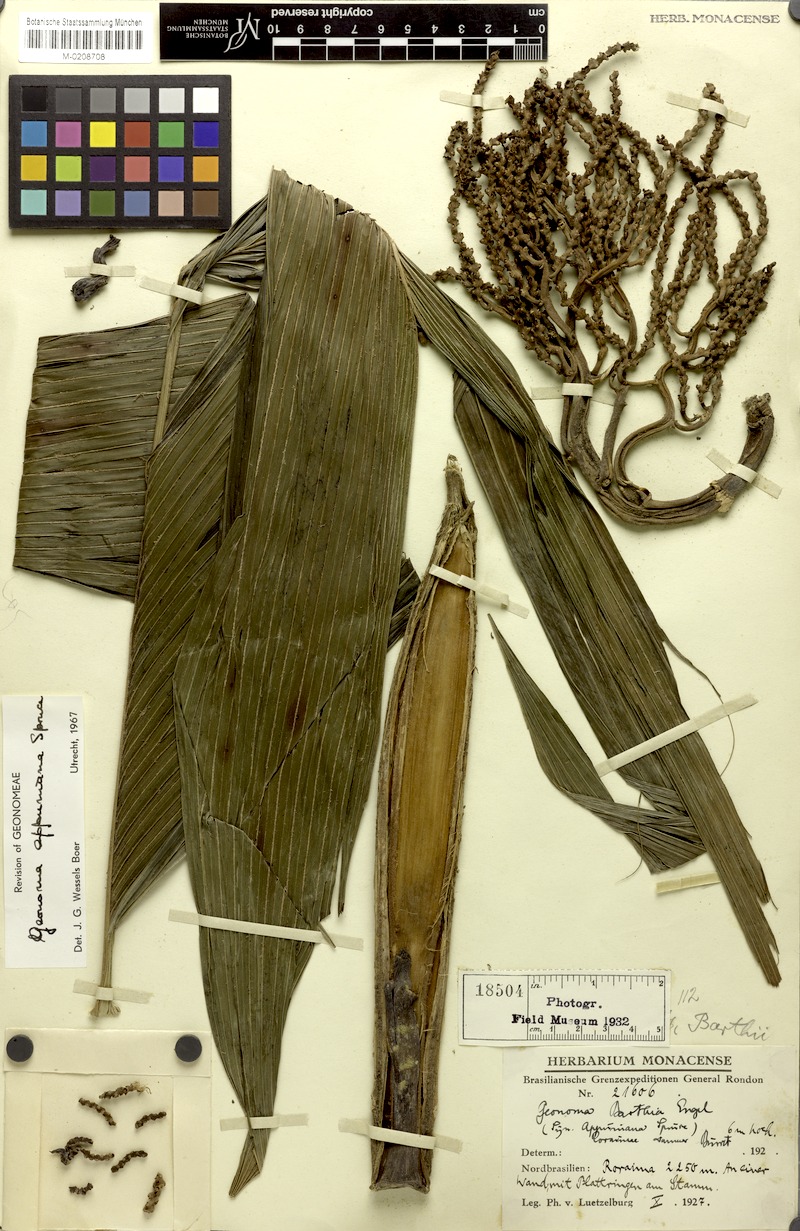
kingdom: Plantae
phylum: Tracheophyta
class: Liliopsida
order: Arecales
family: Arecaceae
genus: Geonoma
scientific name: Geonoma undata
